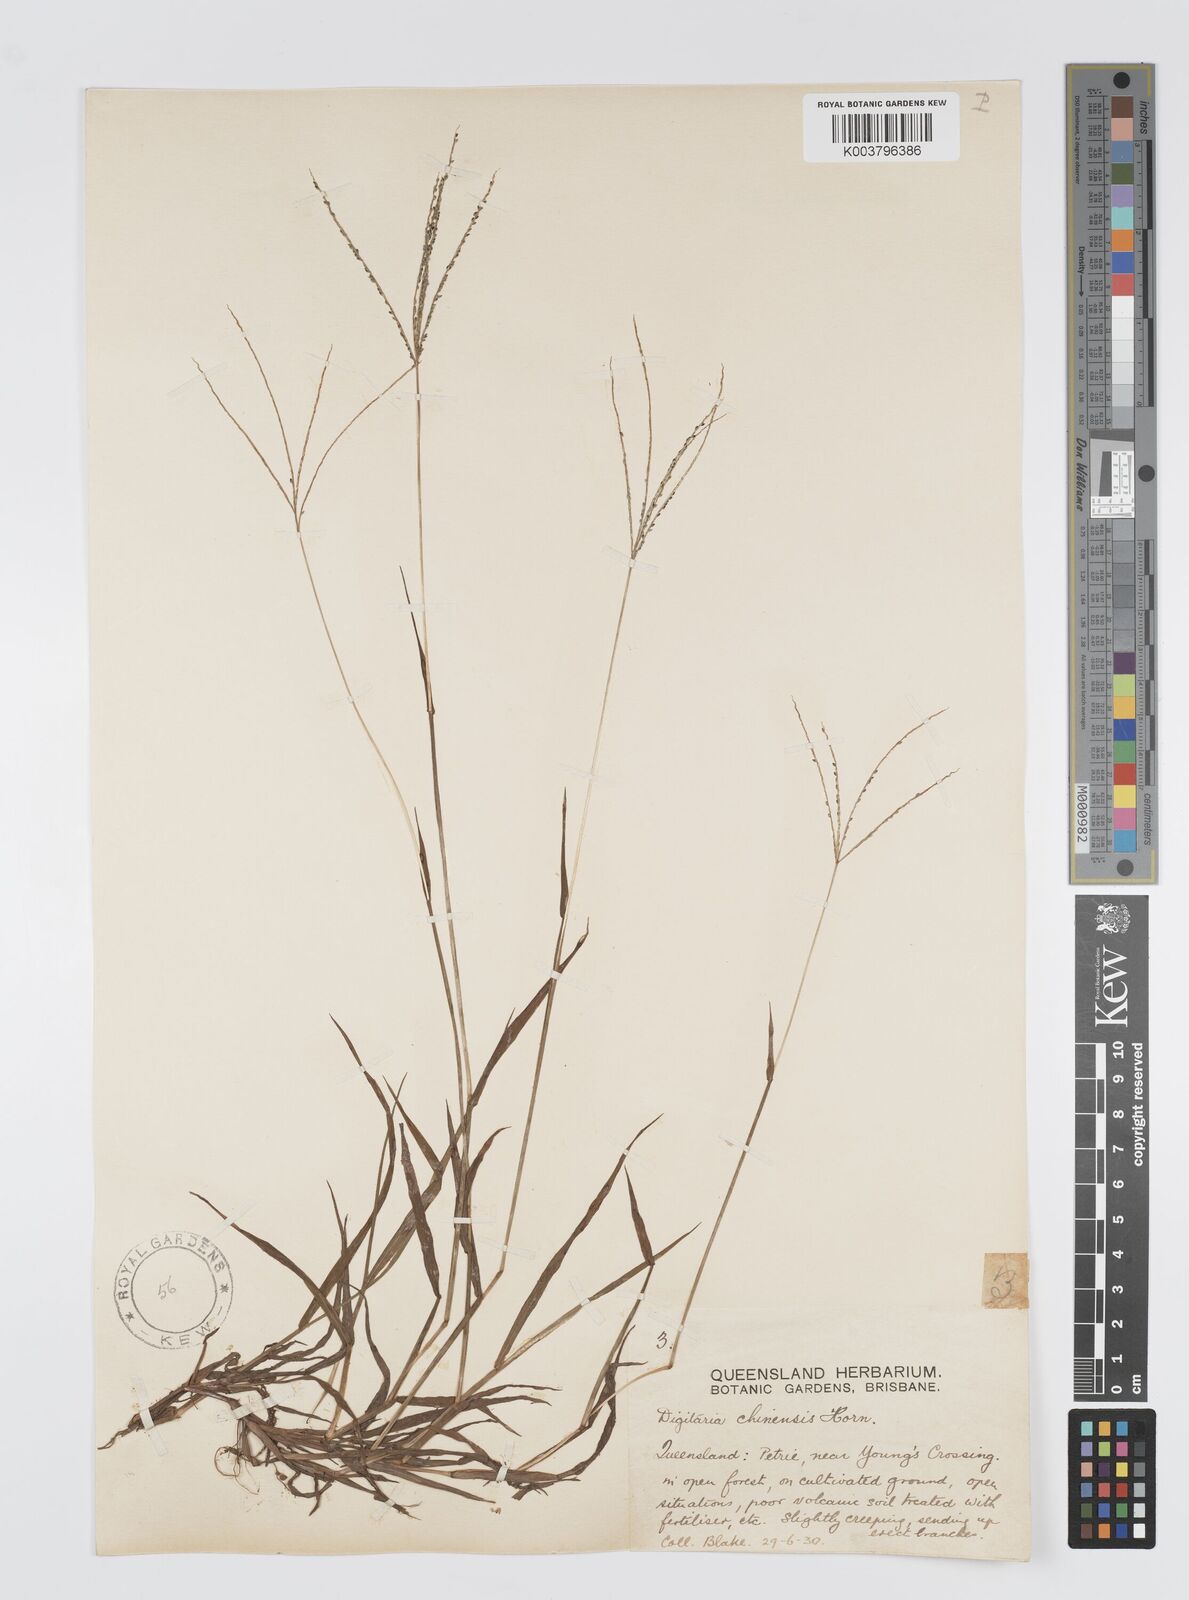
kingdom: Plantae
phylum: Tracheophyta
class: Liliopsida
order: Poales
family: Poaceae
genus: Digitaria
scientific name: Digitaria violascens
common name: Violet crabgrass
